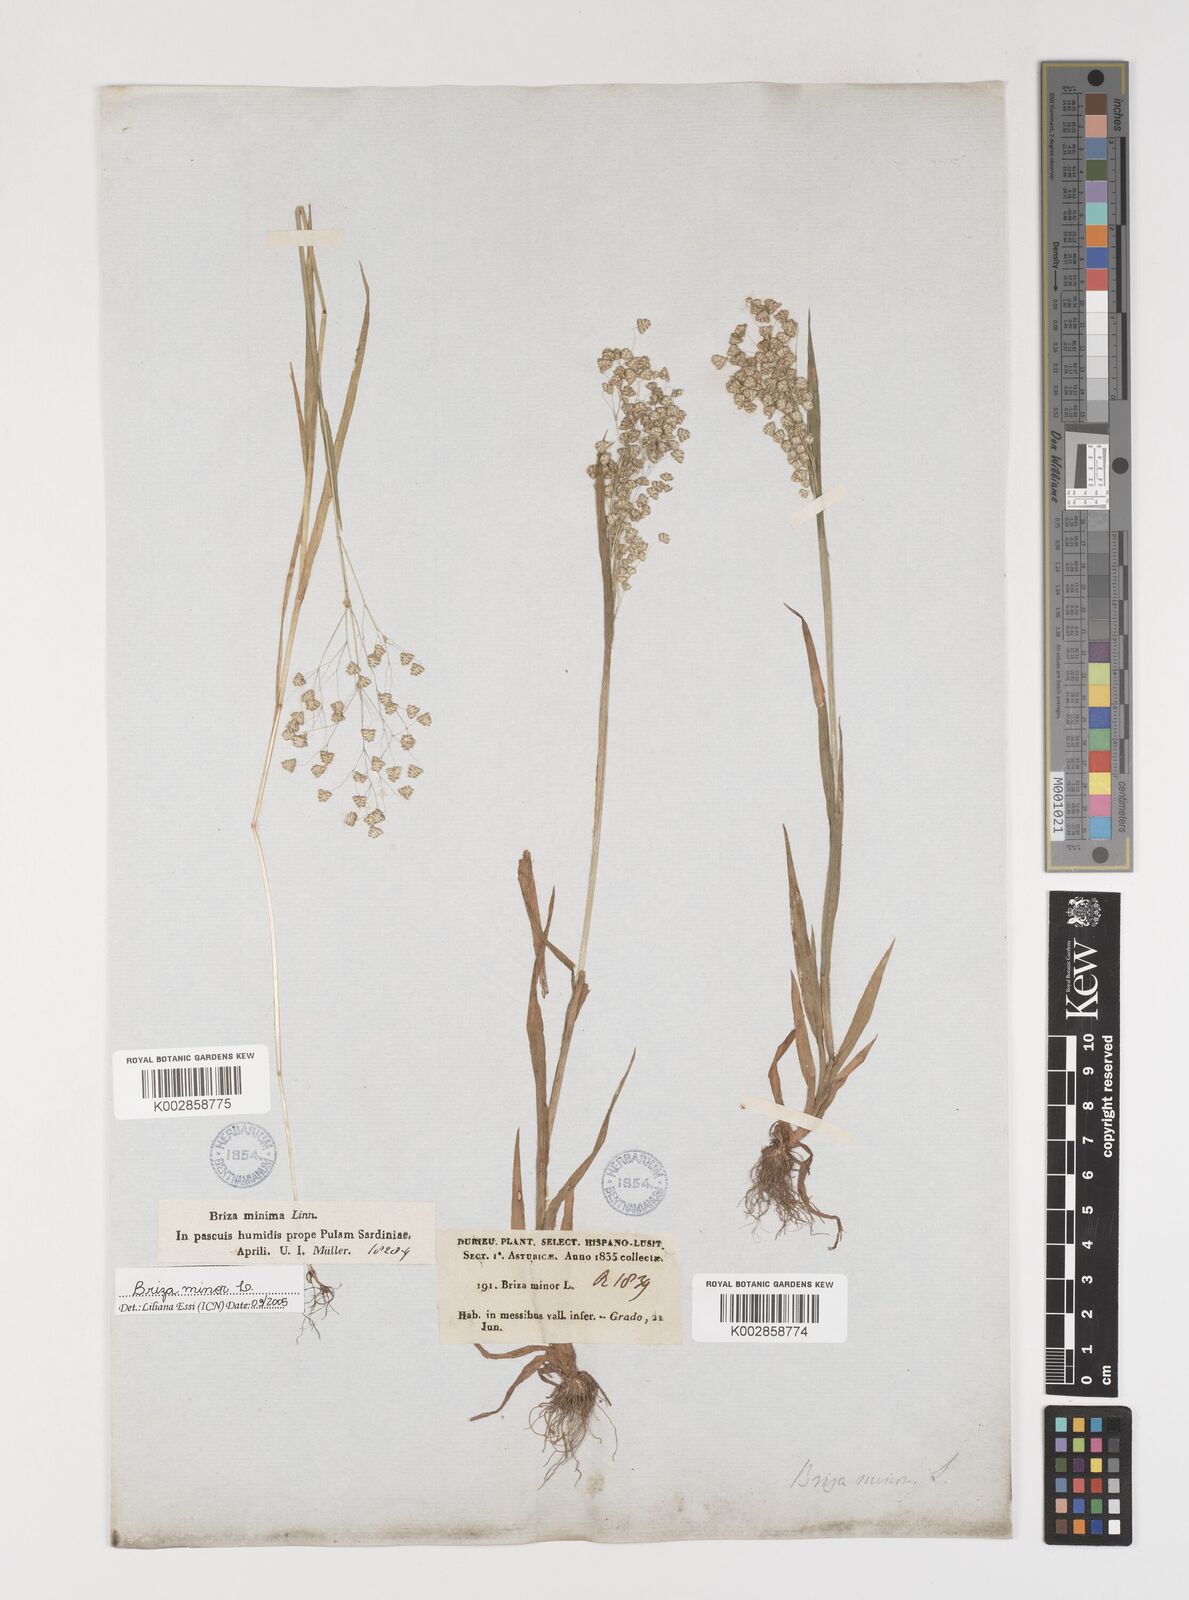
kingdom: Plantae
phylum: Tracheophyta
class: Liliopsida
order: Poales
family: Poaceae
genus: Briza
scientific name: Briza minor
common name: Lesser quaking-grass
